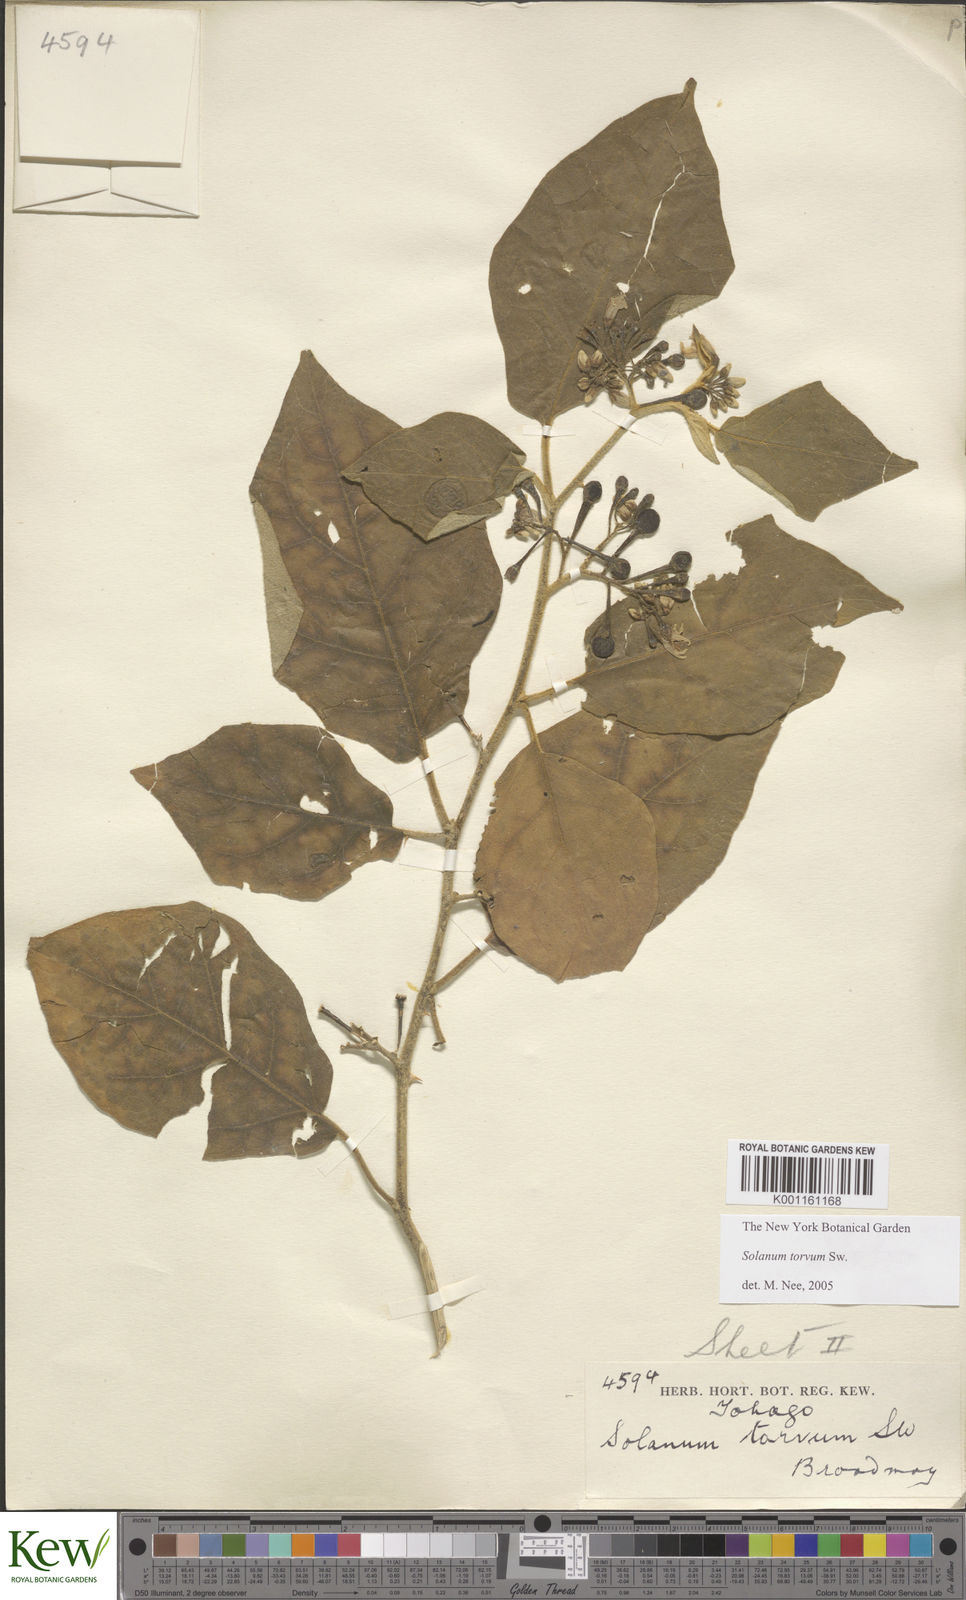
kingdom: Plantae
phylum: Tracheophyta
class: Magnoliopsida
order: Solanales
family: Solanaceae
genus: Solanum
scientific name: Solanum torvum
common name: Turkey berry
